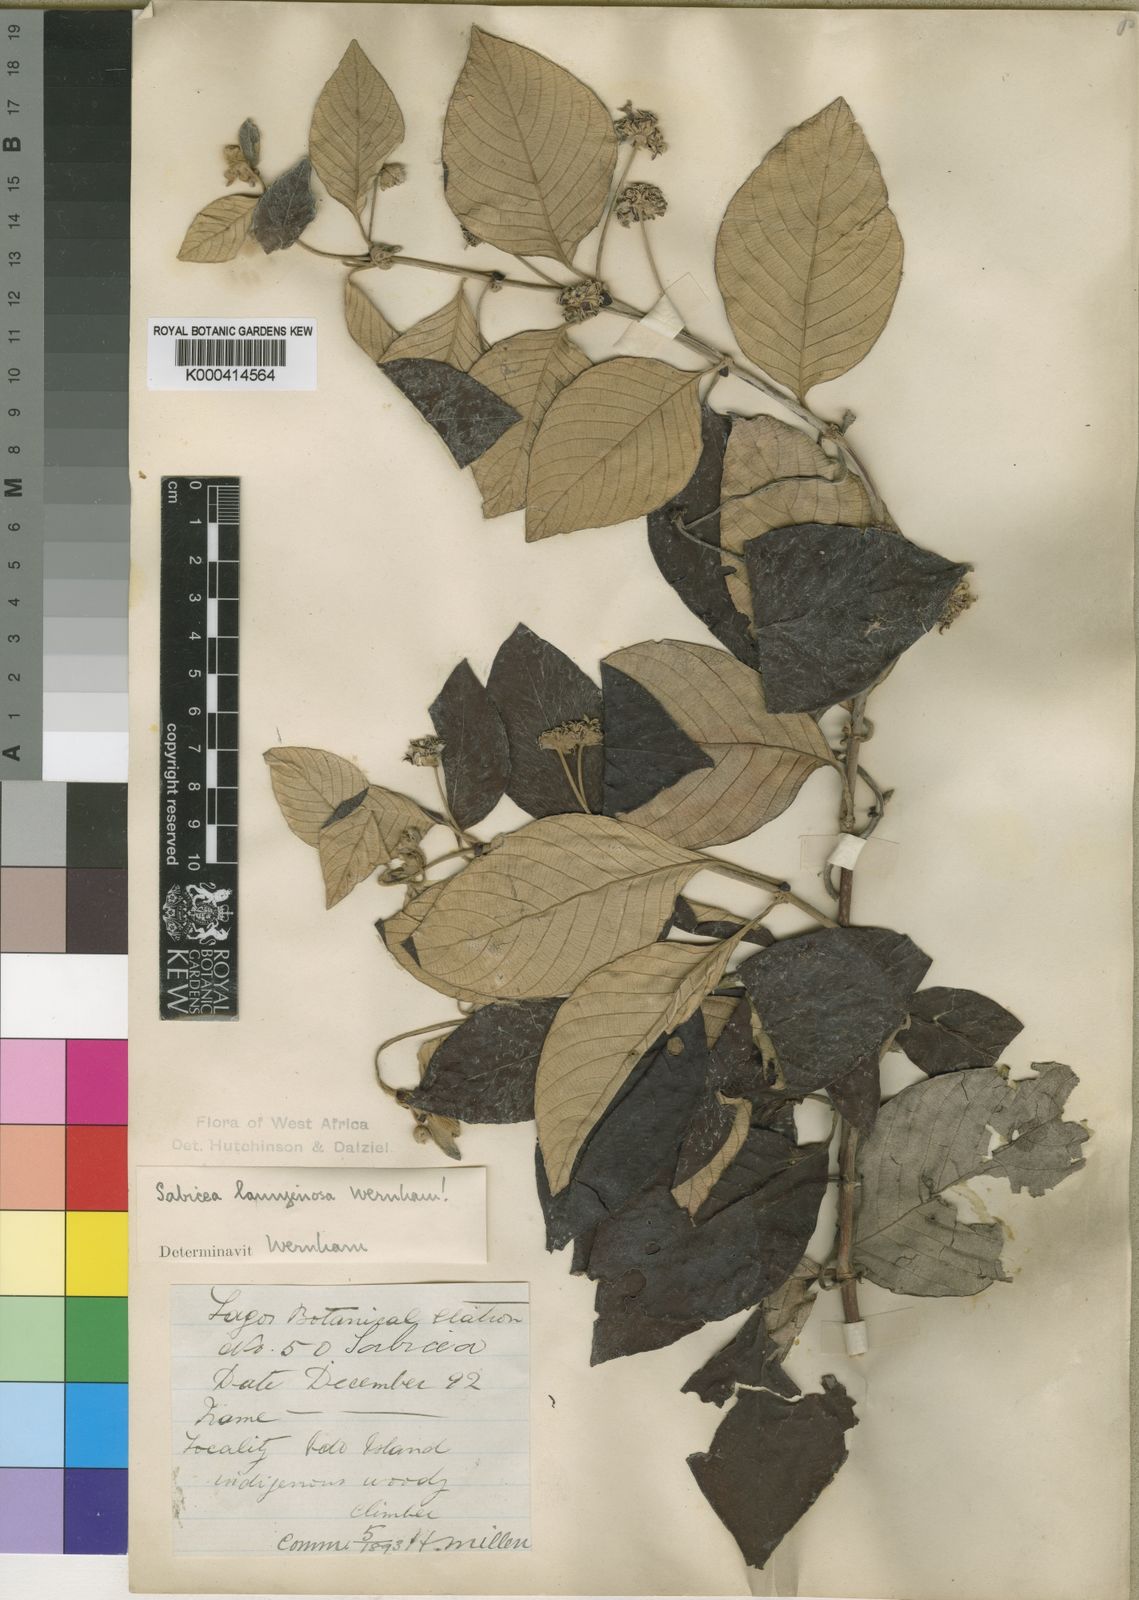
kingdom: Plantae
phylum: Tracheophyta
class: Magnoliopsida
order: Gentianales
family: Rubiaceae
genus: Sabicea
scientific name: Sabicea lanuginosa
